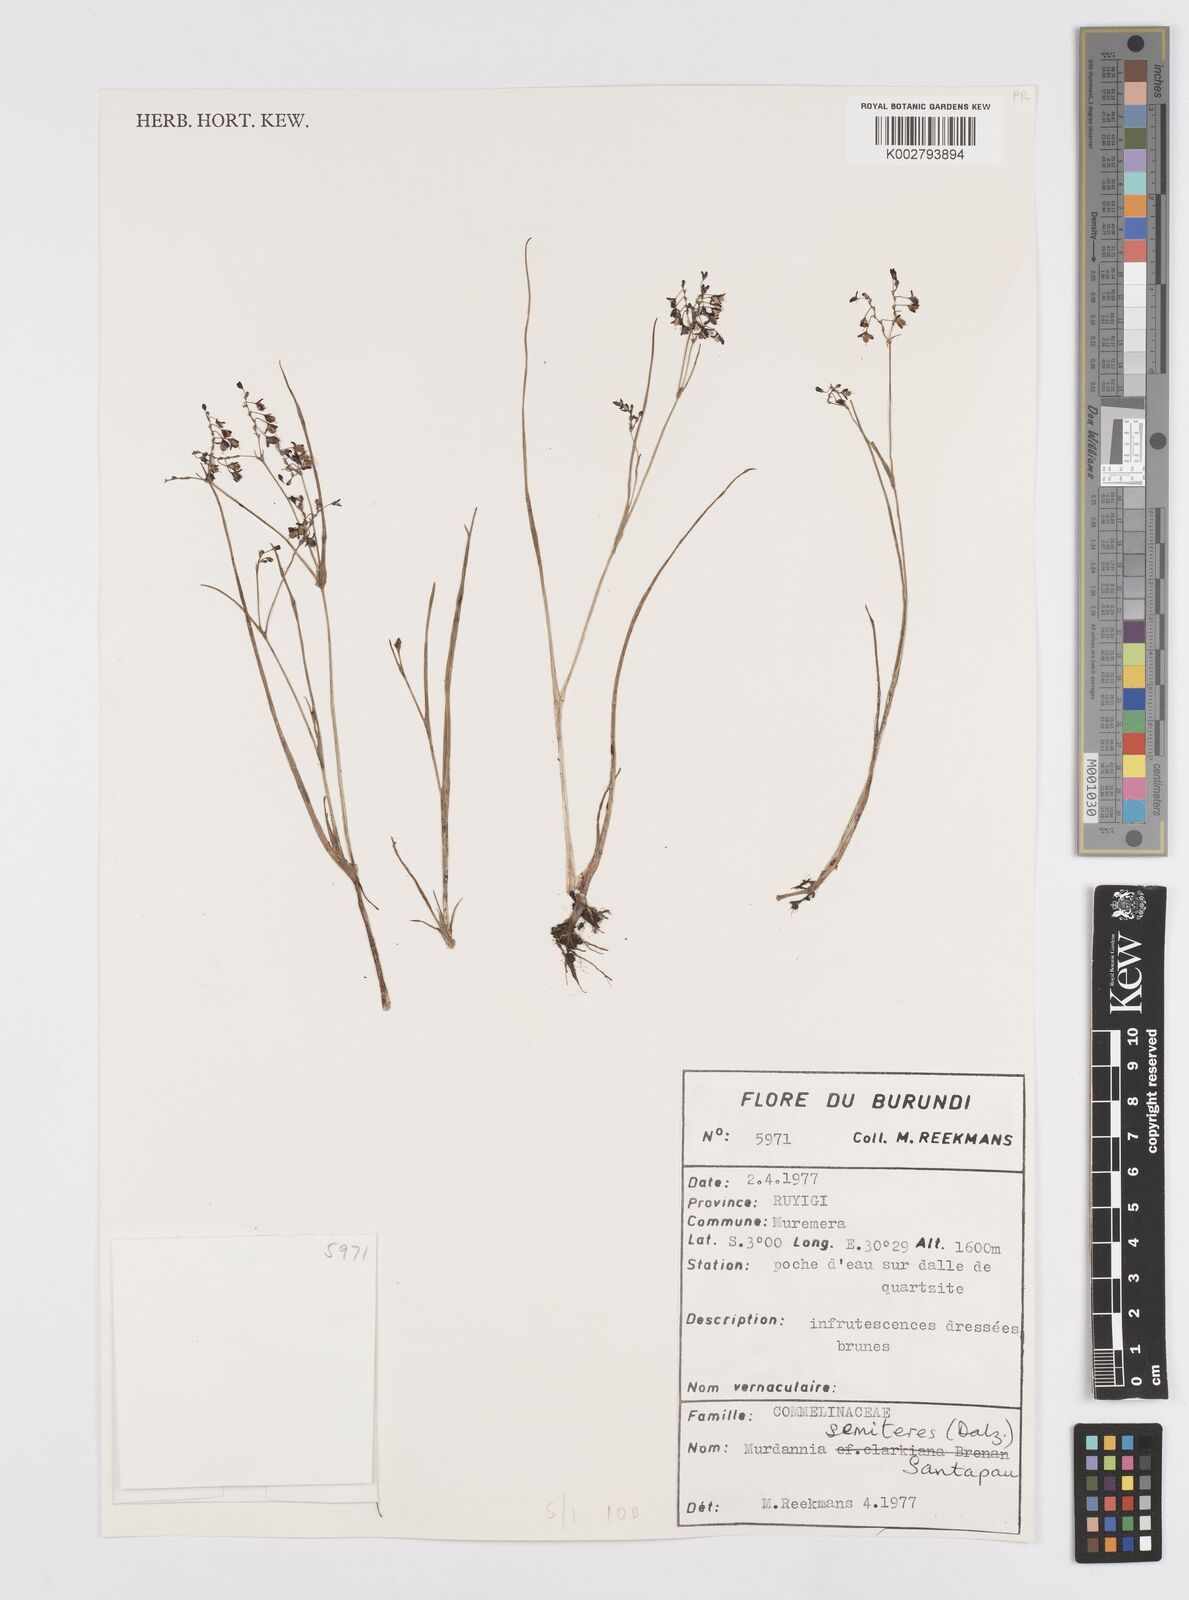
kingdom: Plantae
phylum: Tracheophyta
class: Liliopsida
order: Commelinales
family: Commelinaceae
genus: Murdannia
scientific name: Murdannia semiteres
